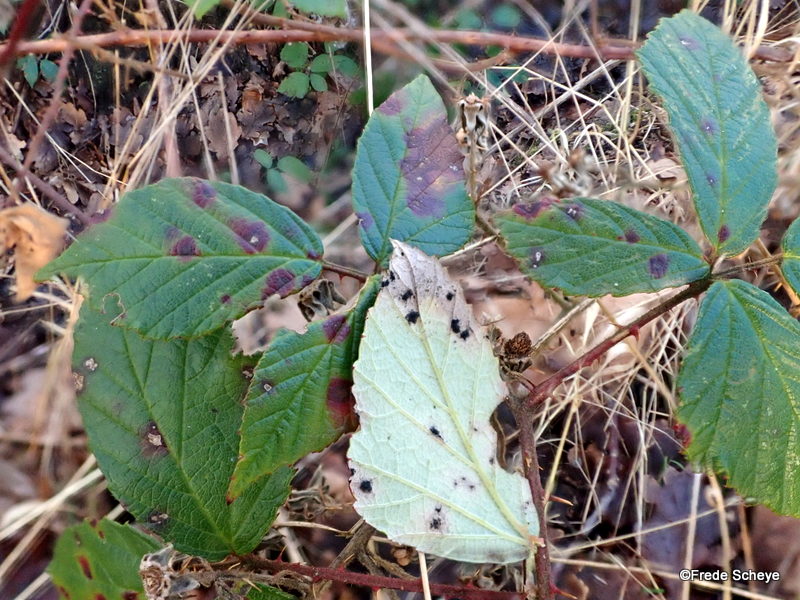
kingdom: Fungi
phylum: Basidiomycota
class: Pucciniomycetes
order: Pucciniales
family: Phragmidiaceae
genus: Phragmidium
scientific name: Phragmidium violaceum
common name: violet flercellerust
